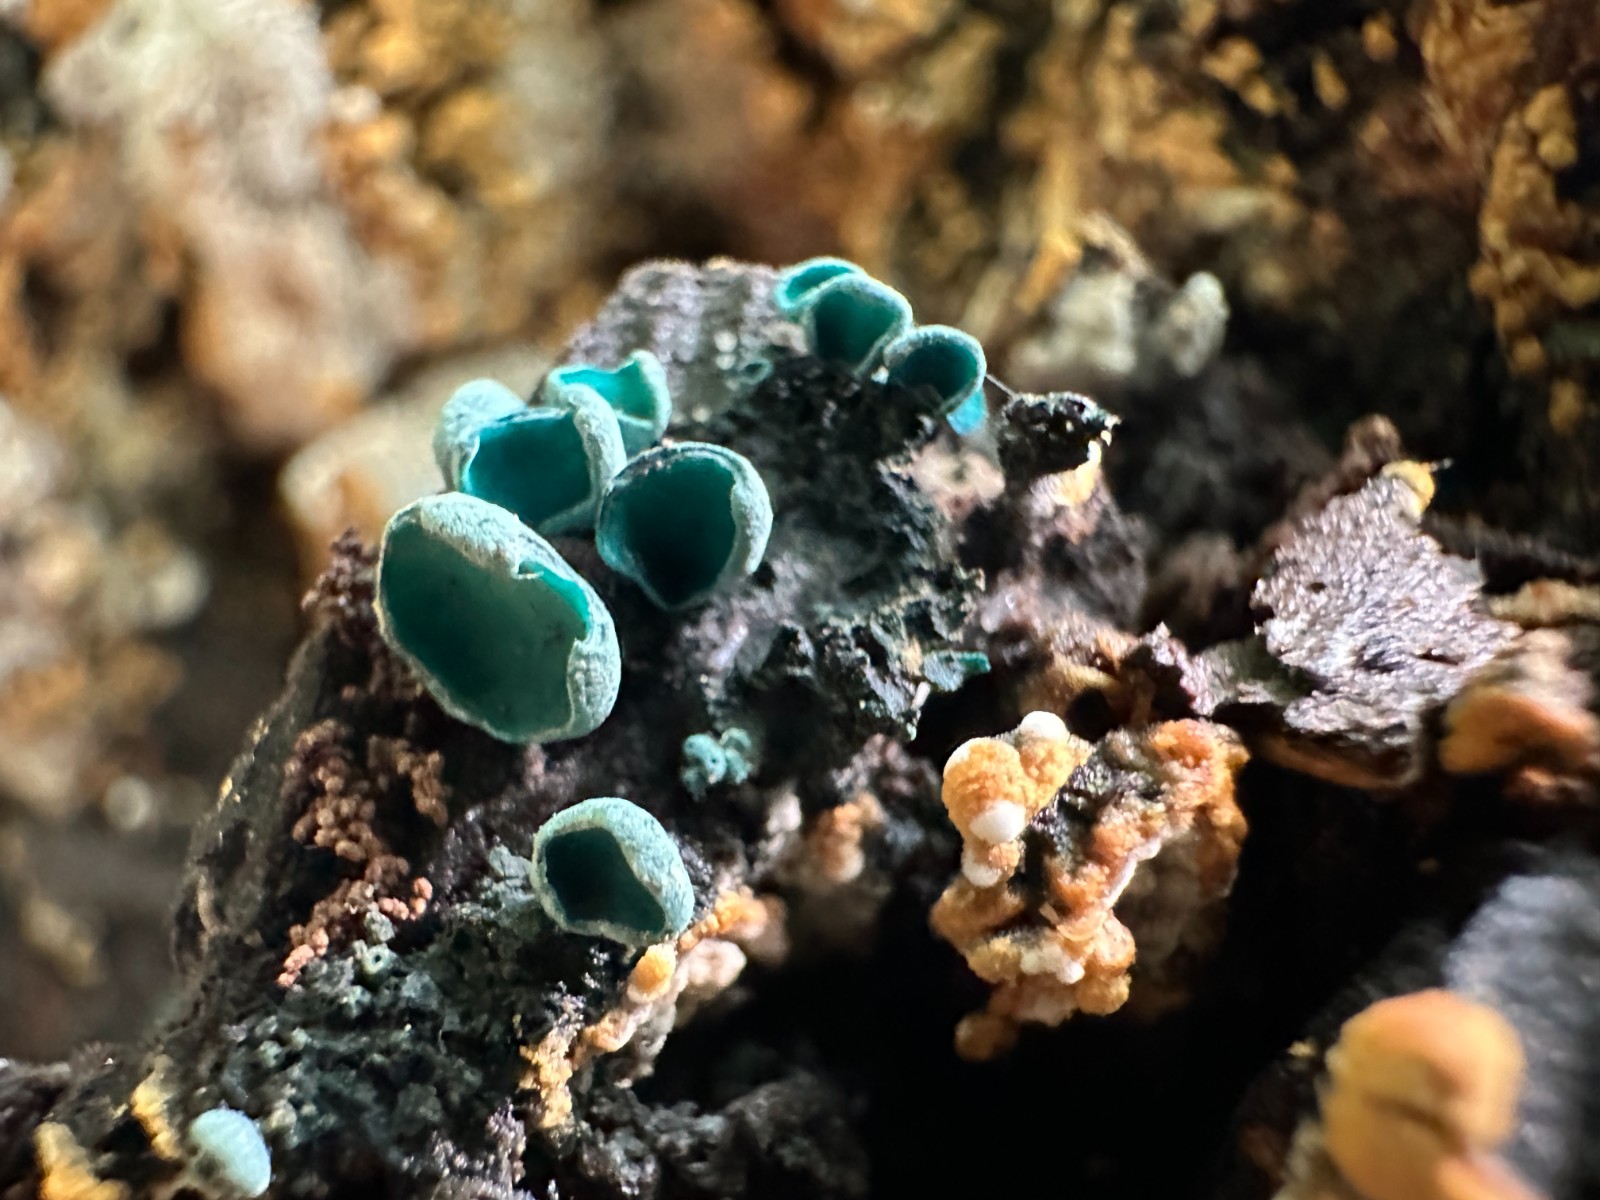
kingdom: Fungi
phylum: Ascomycota
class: Leotiomycetes
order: Helotiales
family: Chlorociboriaceae
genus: Chlorociboria
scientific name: Chlorociboria aeruginascens
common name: almindelig grønskive
